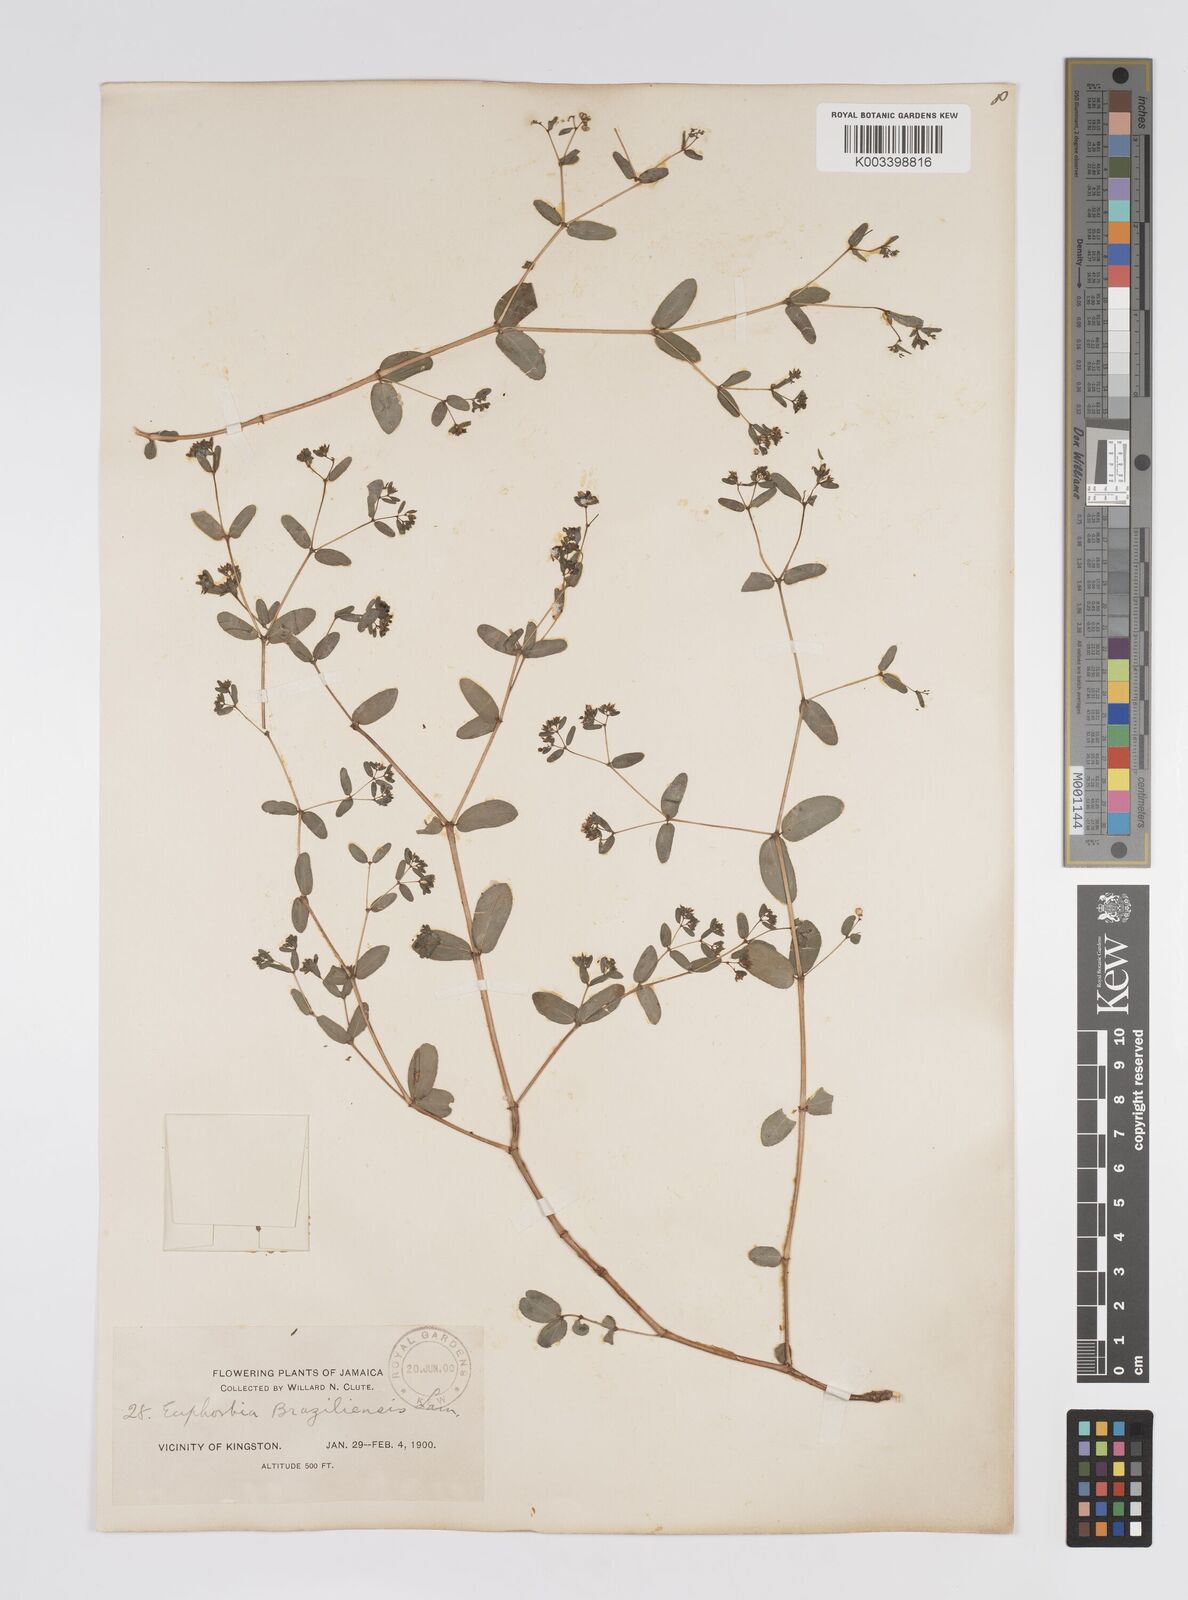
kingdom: Plantae
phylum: Tracheophyta
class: Magnoliopsida
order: Malpighiales
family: Euphorbiaceae
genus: Euphorbia
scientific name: Euphorbia hyssopifolia
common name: Hyssopleaf sandmat
